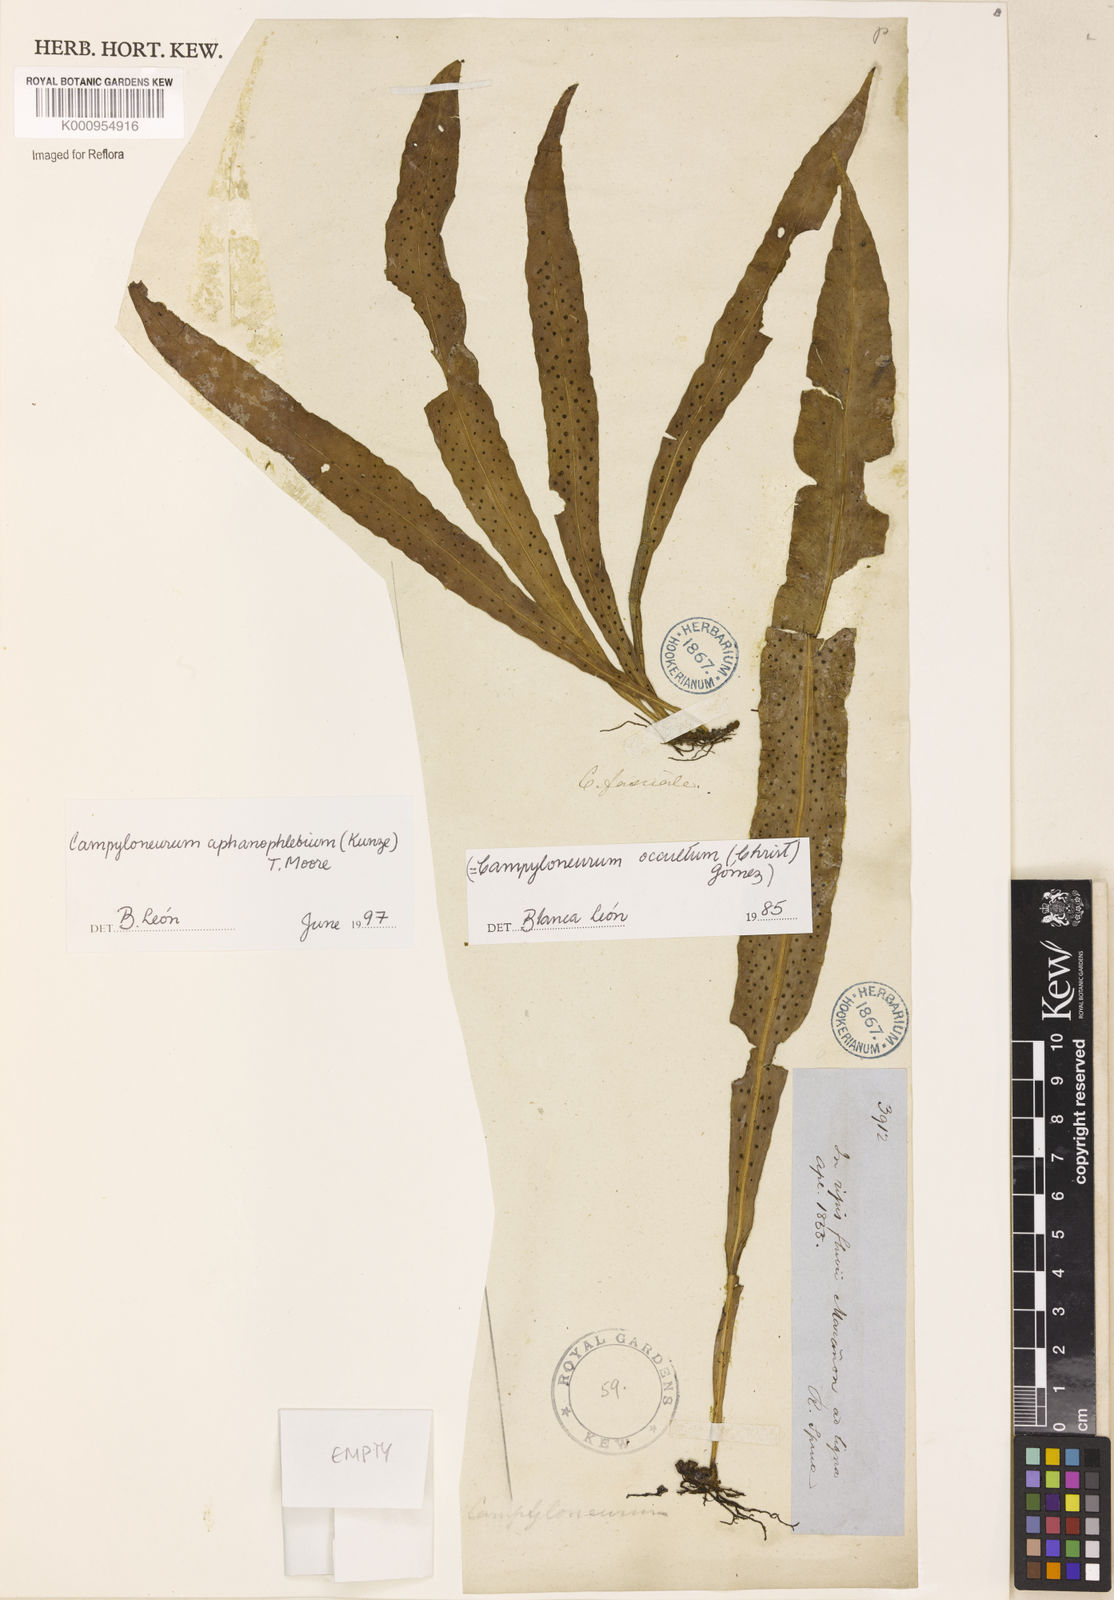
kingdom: Plantae
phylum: Tracheophyta
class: Polypodiopsida
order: Polypodiales
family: Polypodiaceae
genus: Campyloneurum
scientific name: Campyloneurum aphanophlebium
